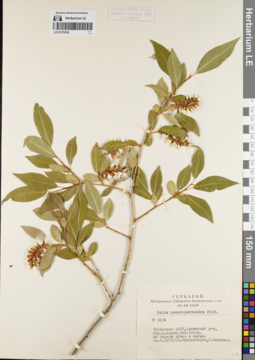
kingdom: Plantae
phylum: Tracheophyta
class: Magnoliopsida
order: Malpighiales
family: Salicaceae
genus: Salix
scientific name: Salix pseudopentandra
